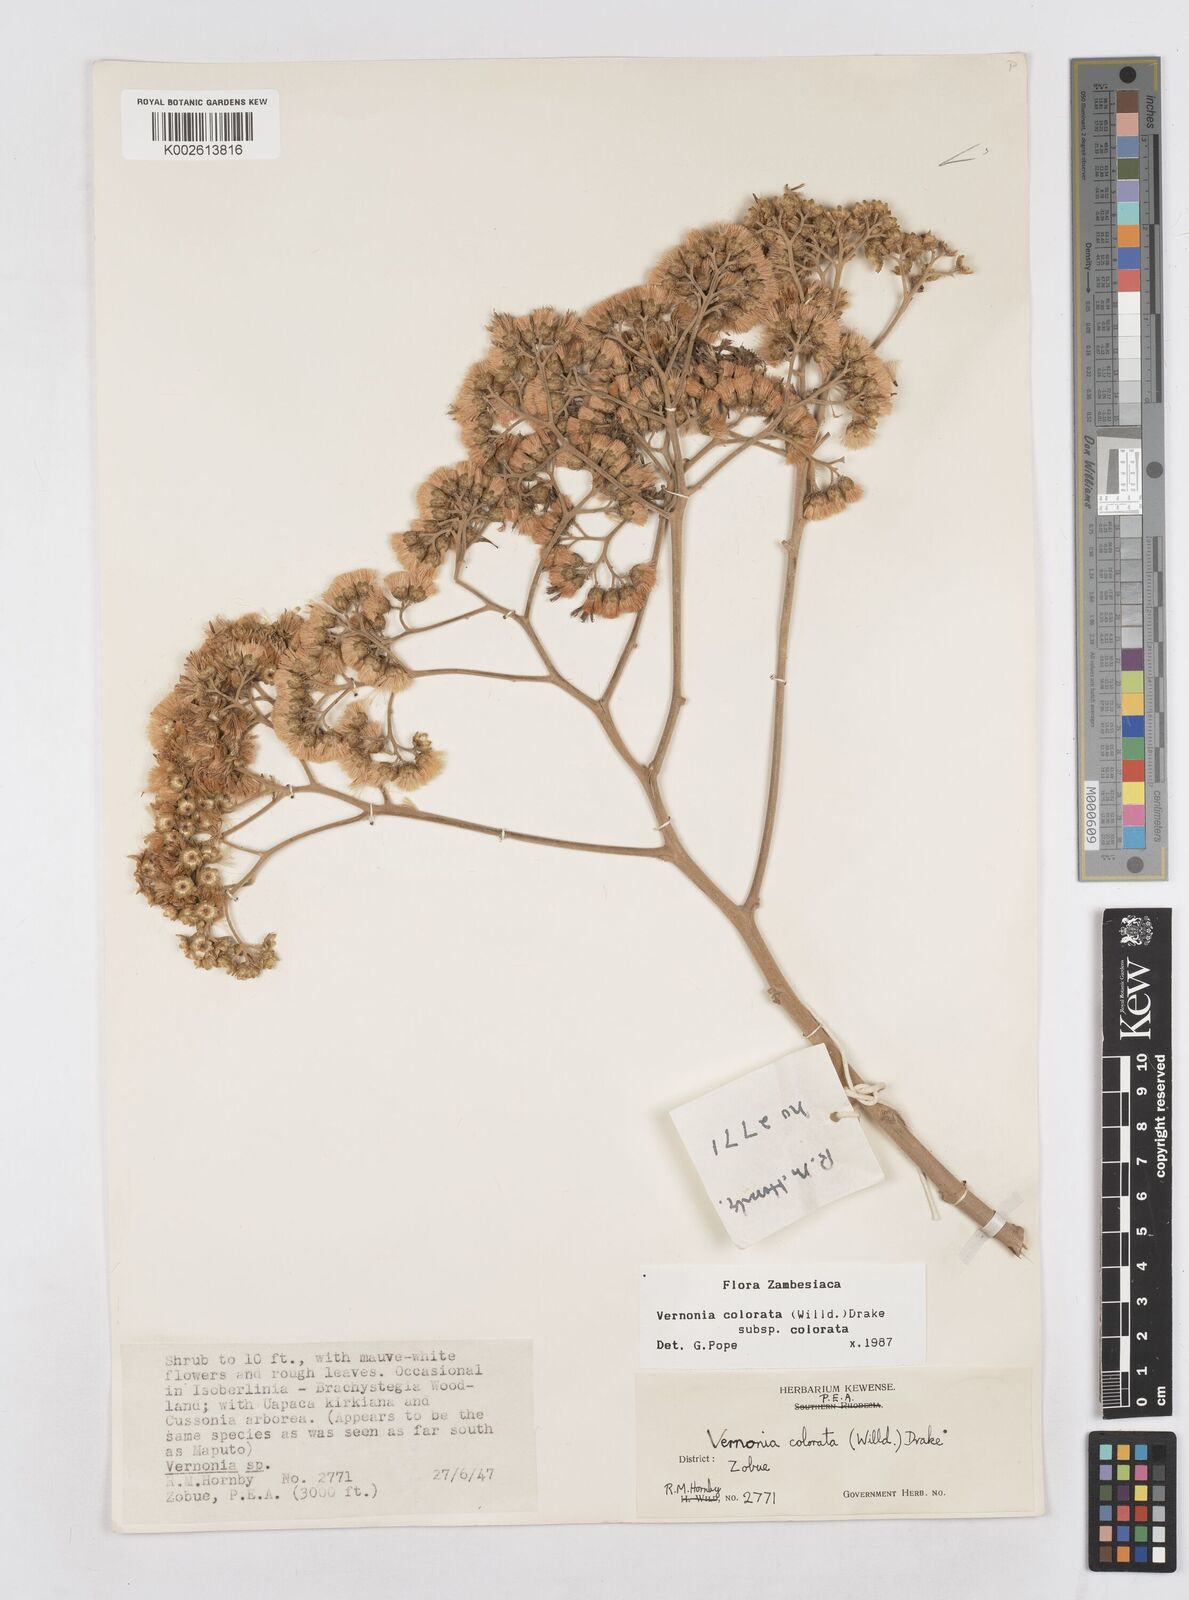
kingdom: Plantae
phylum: Tracheophyta
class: Magnoliopsida
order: Asterales
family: Asteraceae
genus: Vernonia
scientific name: Vernonia colorata
